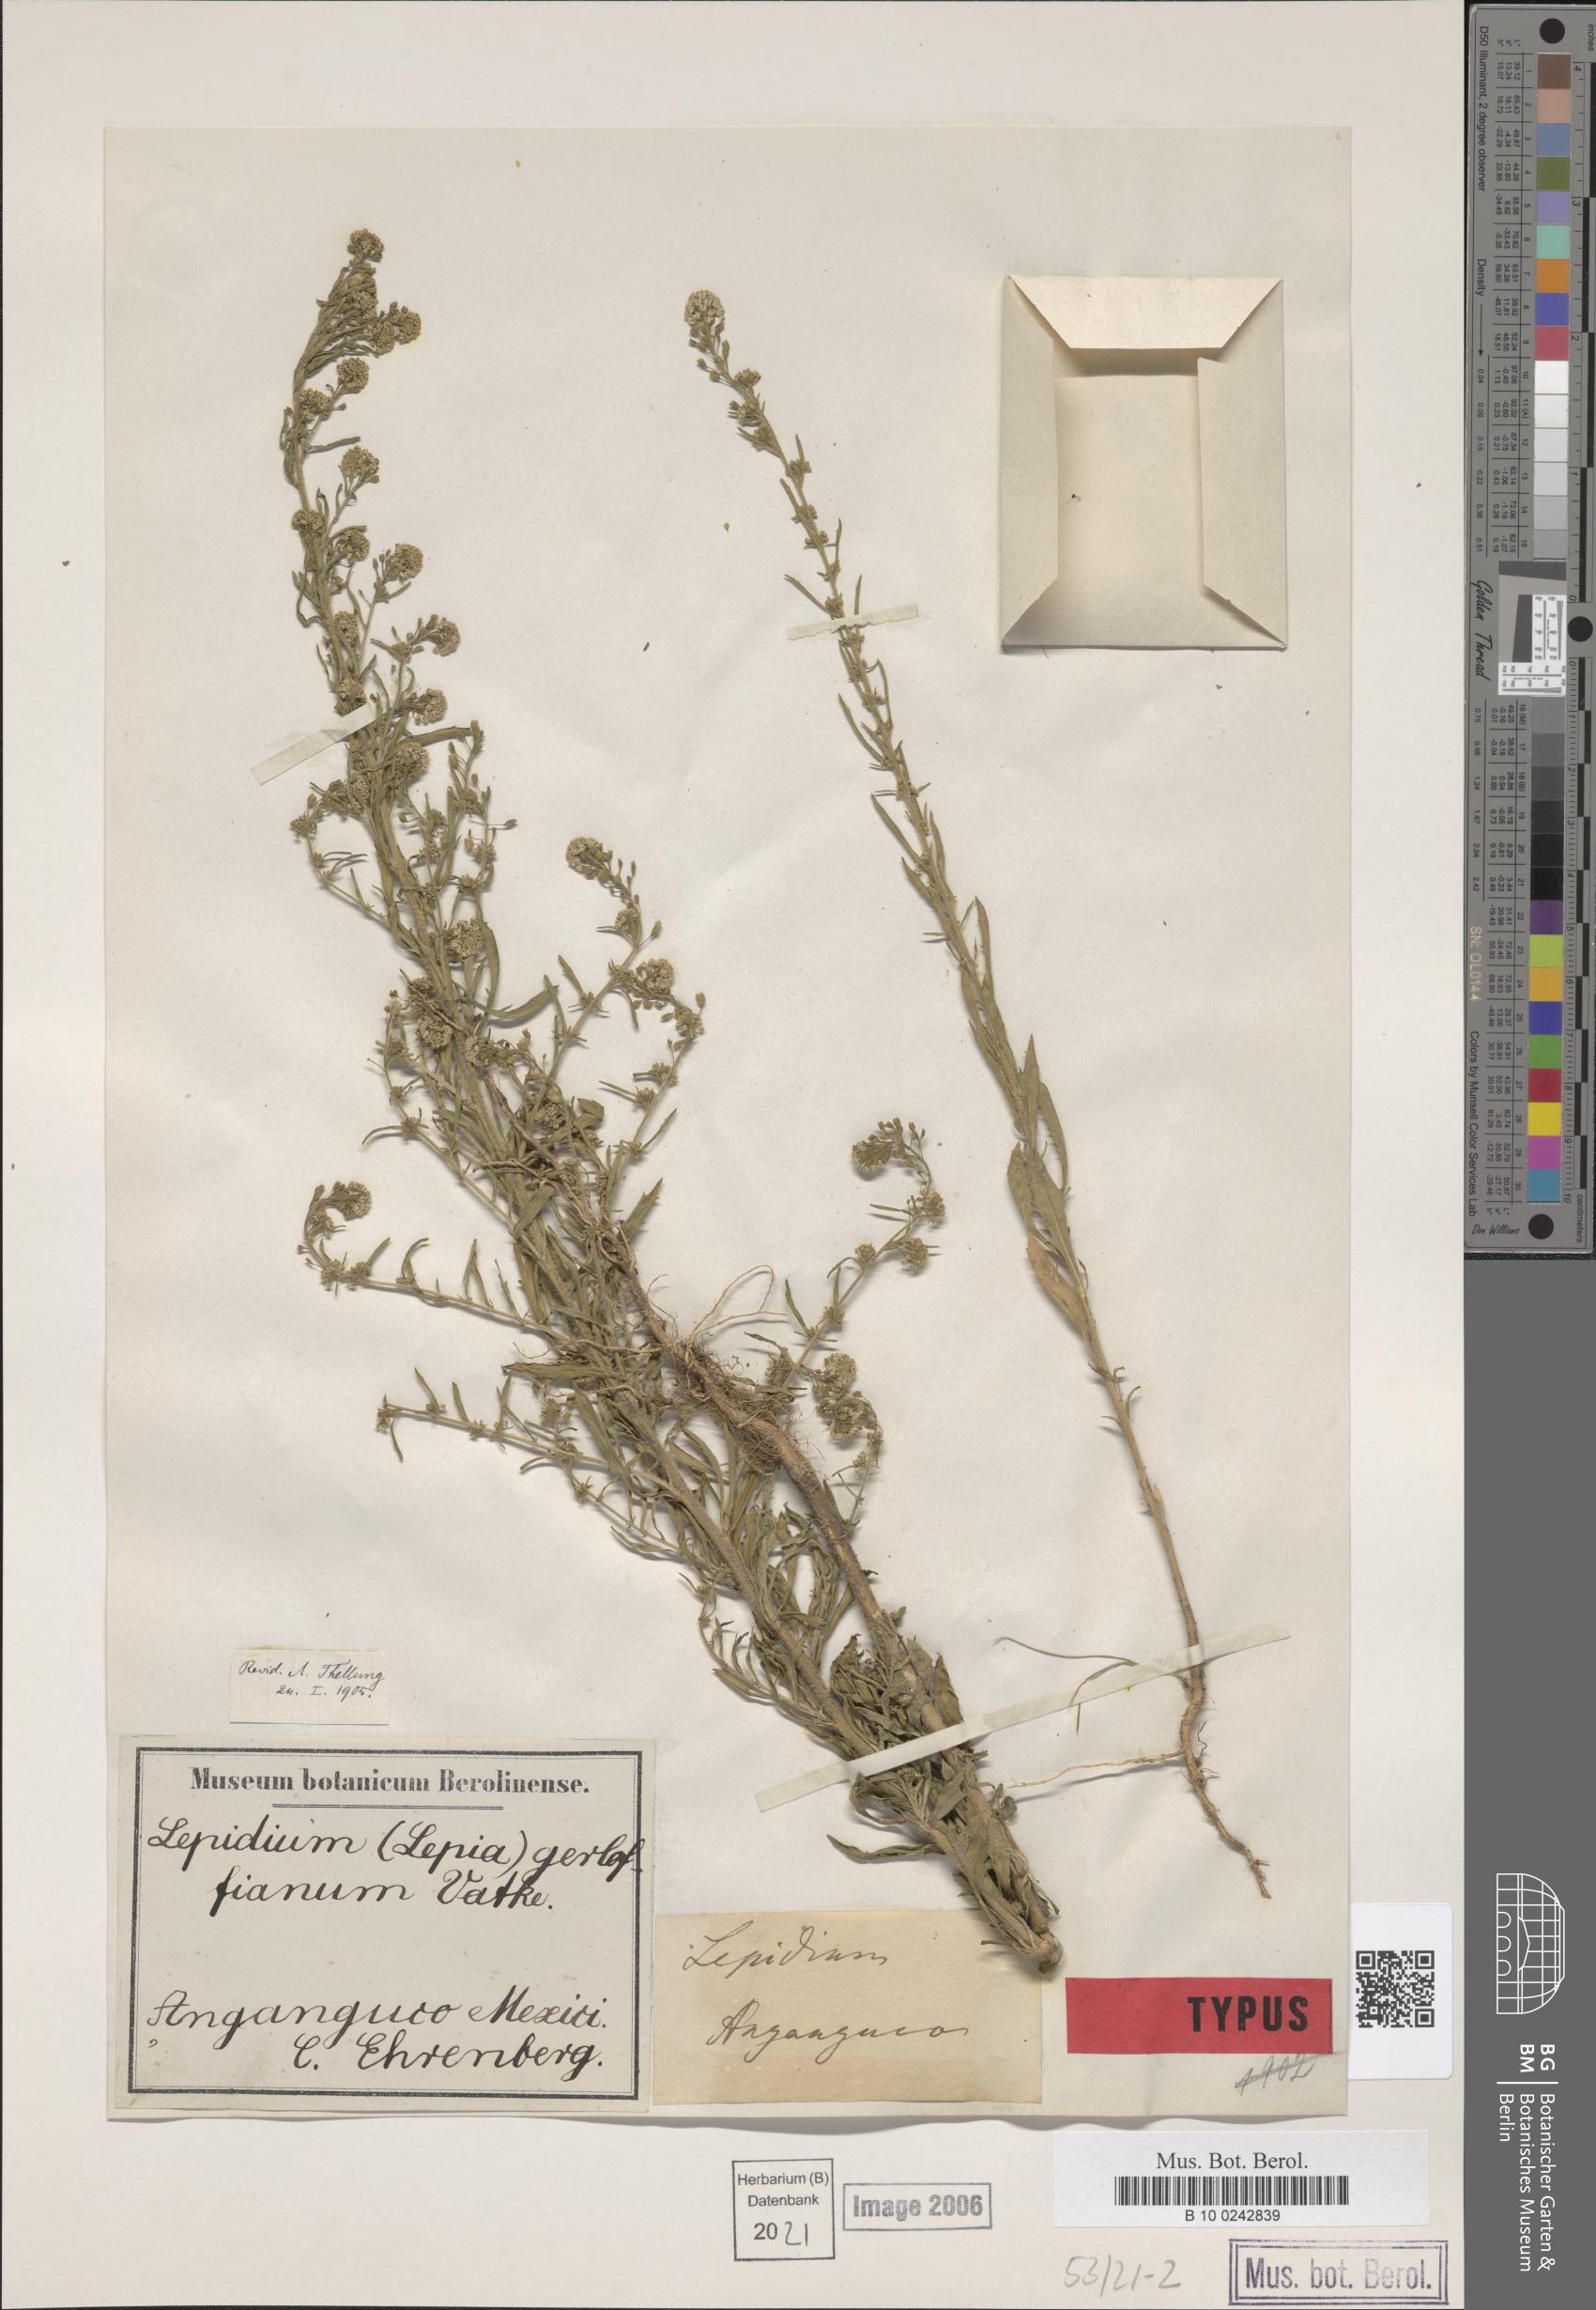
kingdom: Plantae
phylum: Tracheophyta
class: Magnoliopsida
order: Brassicales
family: Brassicaceae
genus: Lepidium
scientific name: Lepidium gerloffianum
